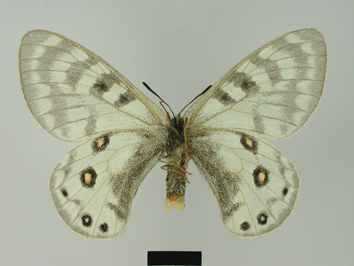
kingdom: Animalia
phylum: Arthropoda
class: Insecta
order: Lepidoptera
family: Papilionidae
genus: Parnassius
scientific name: Parnassius staudingeri
